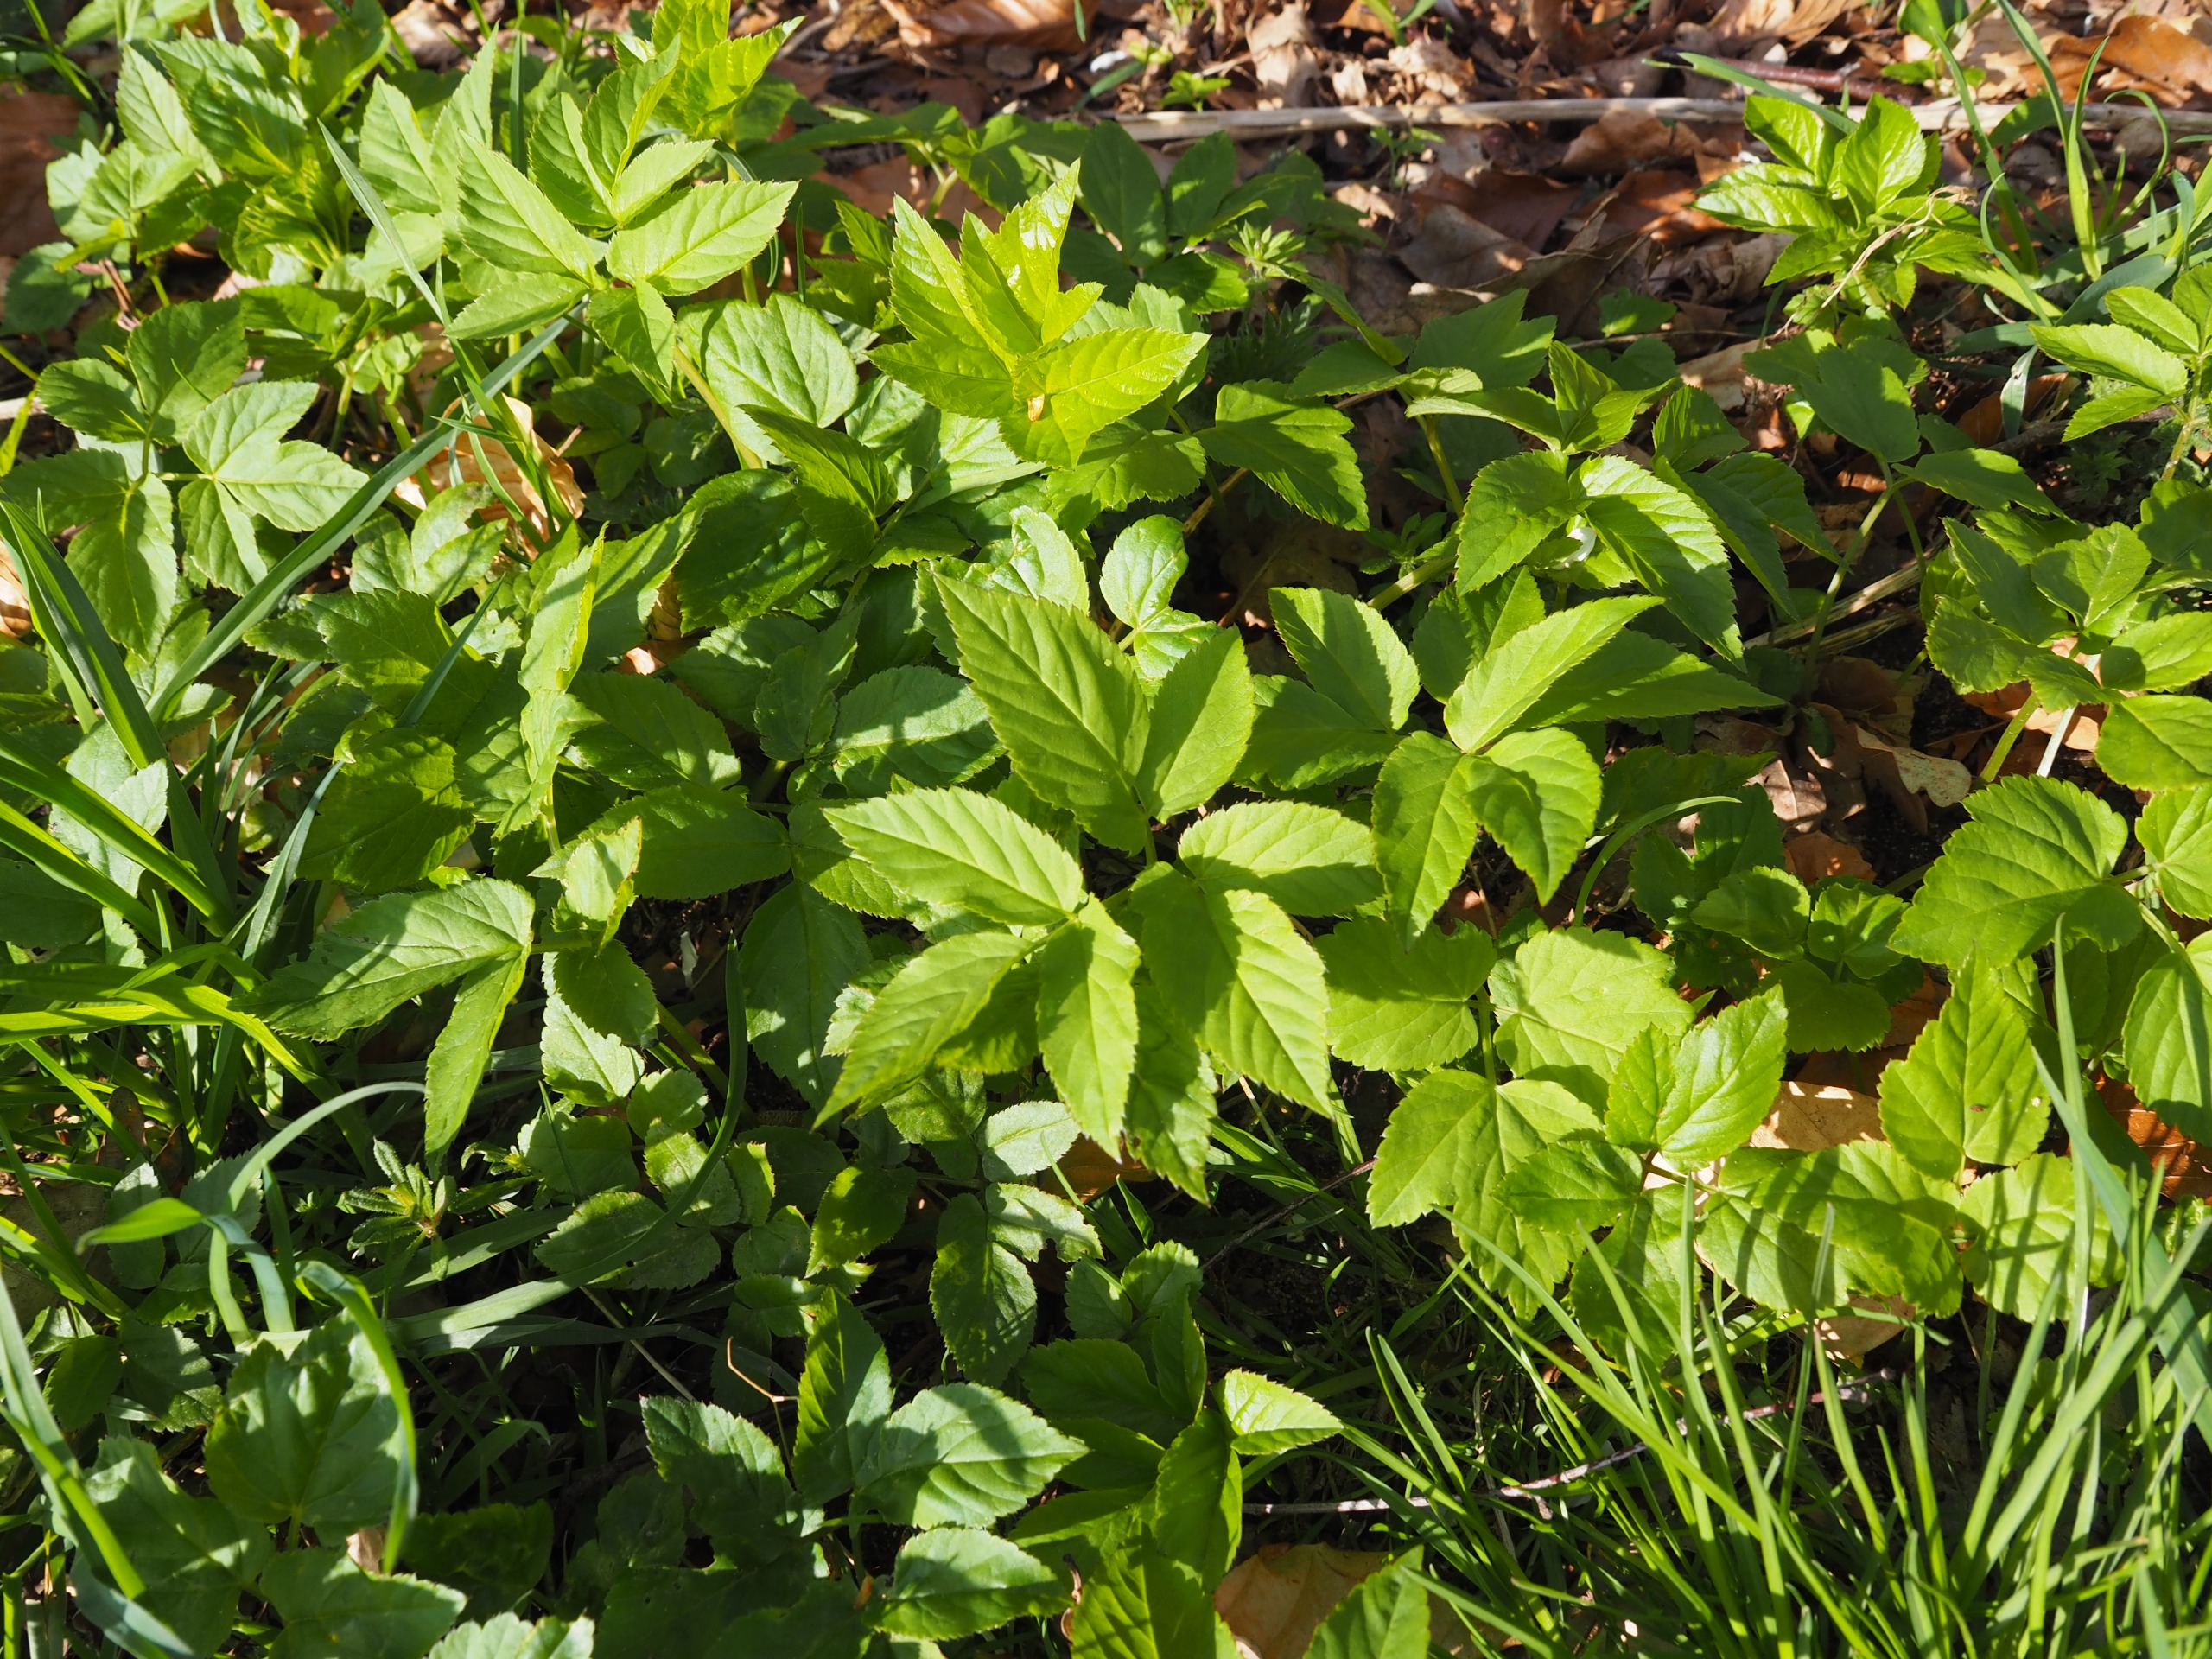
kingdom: Plantae
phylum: Tracheophyta
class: Magnoliopsida
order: Apiales
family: Apiaceae
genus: Aegopodium
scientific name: Aegopodium podagraria
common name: Skvalderkål
